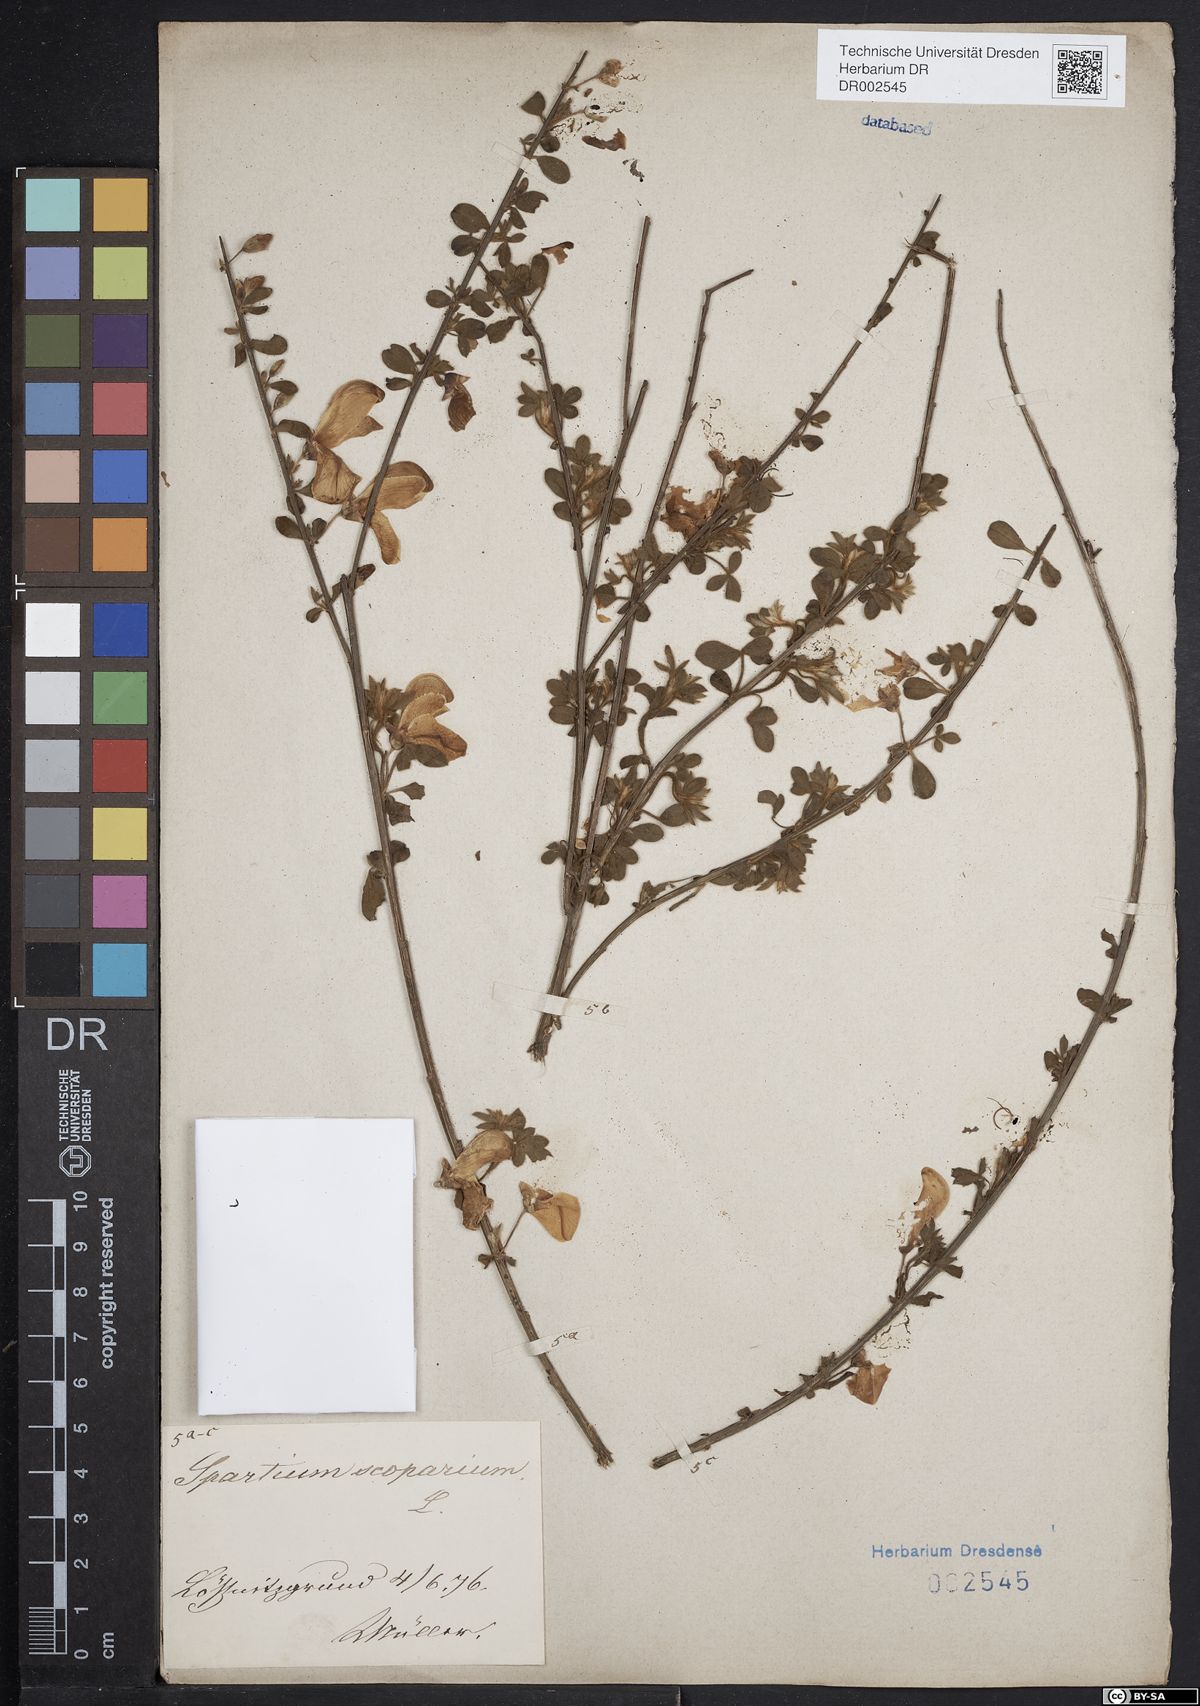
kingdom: Plantae
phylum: Tracheophyta
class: Magnoliopsida
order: Fabales
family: Fabaceae
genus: Cytisus
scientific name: Cytisus scoparius
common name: Scotch broom
